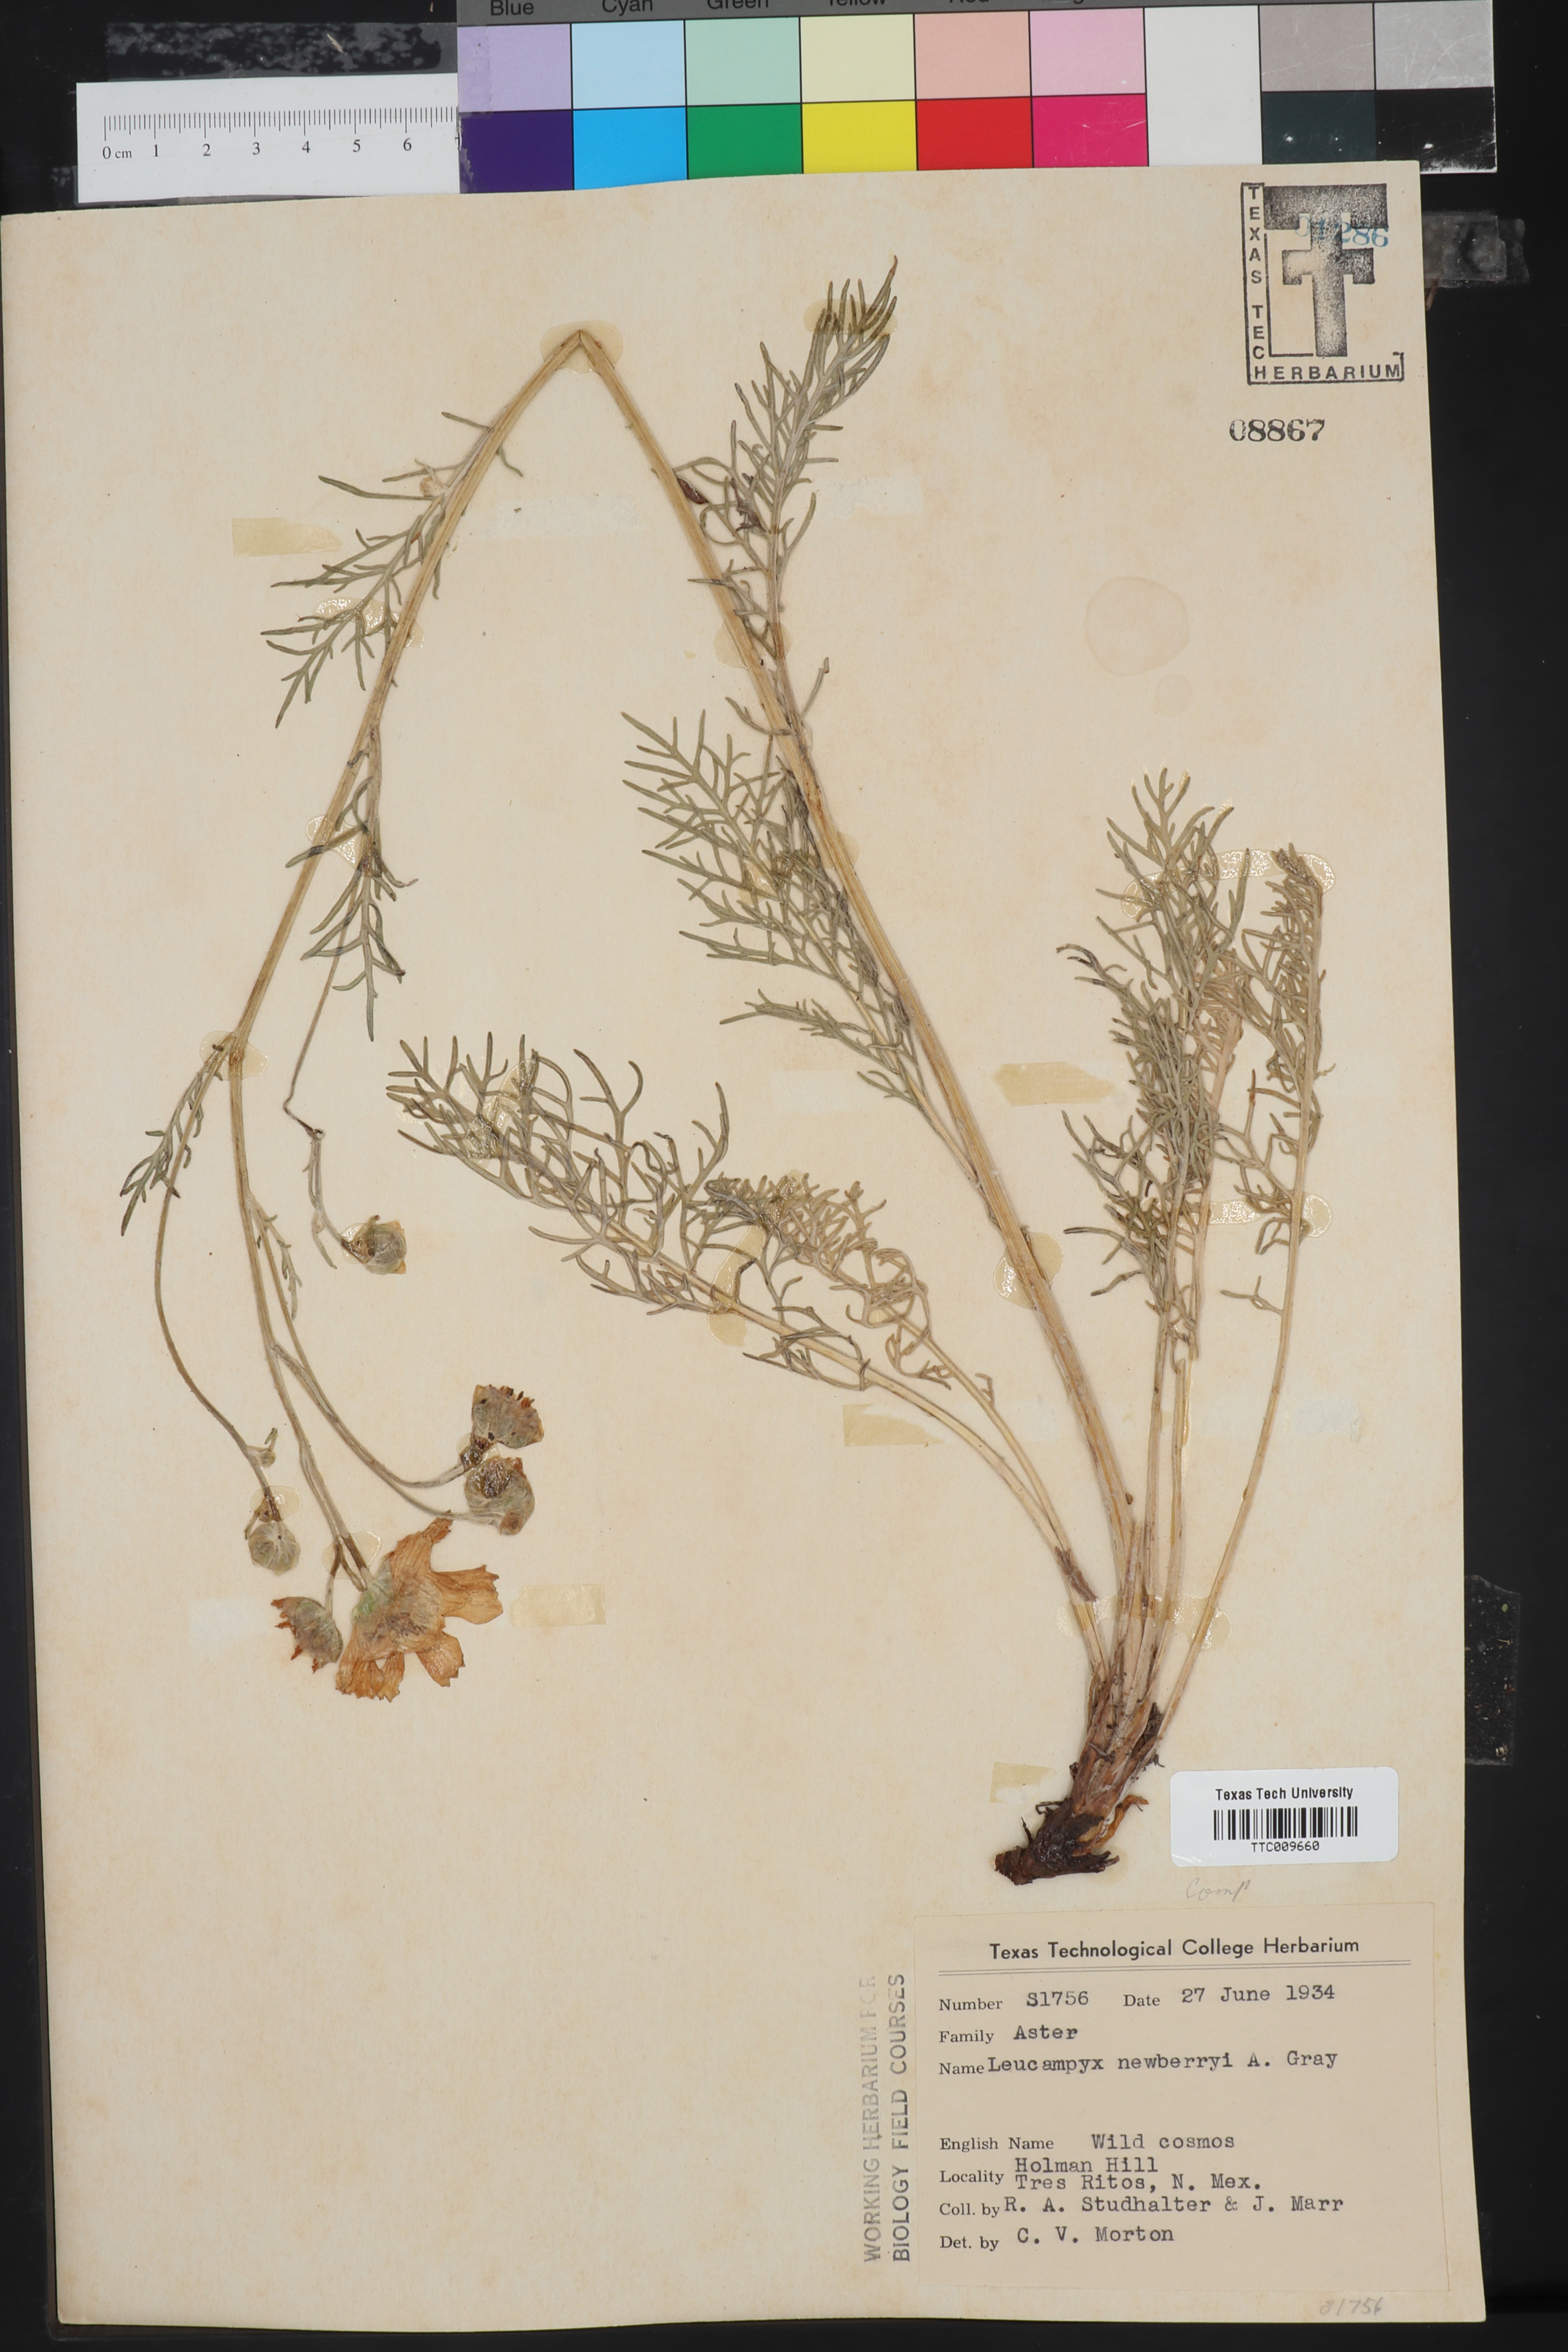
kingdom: Plantae
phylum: Tracheophyta
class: Magnoliopsida
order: Asterales
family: Asteraceae
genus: Hymenopappus
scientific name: Hymenopappus newberryi
